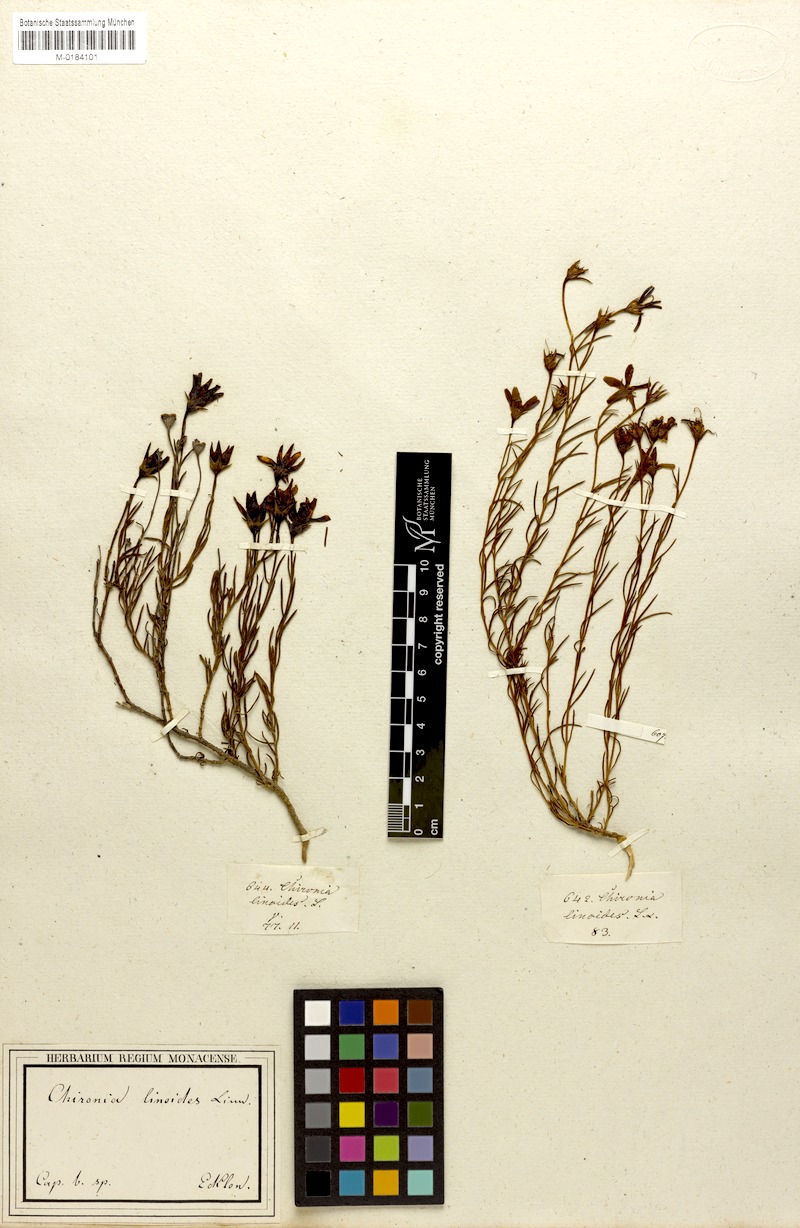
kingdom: Plantae
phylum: Tracheophyta
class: Magnoliopsida
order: Gentianales
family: Gentianaceae
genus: Chironia
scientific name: Chironia linoides
